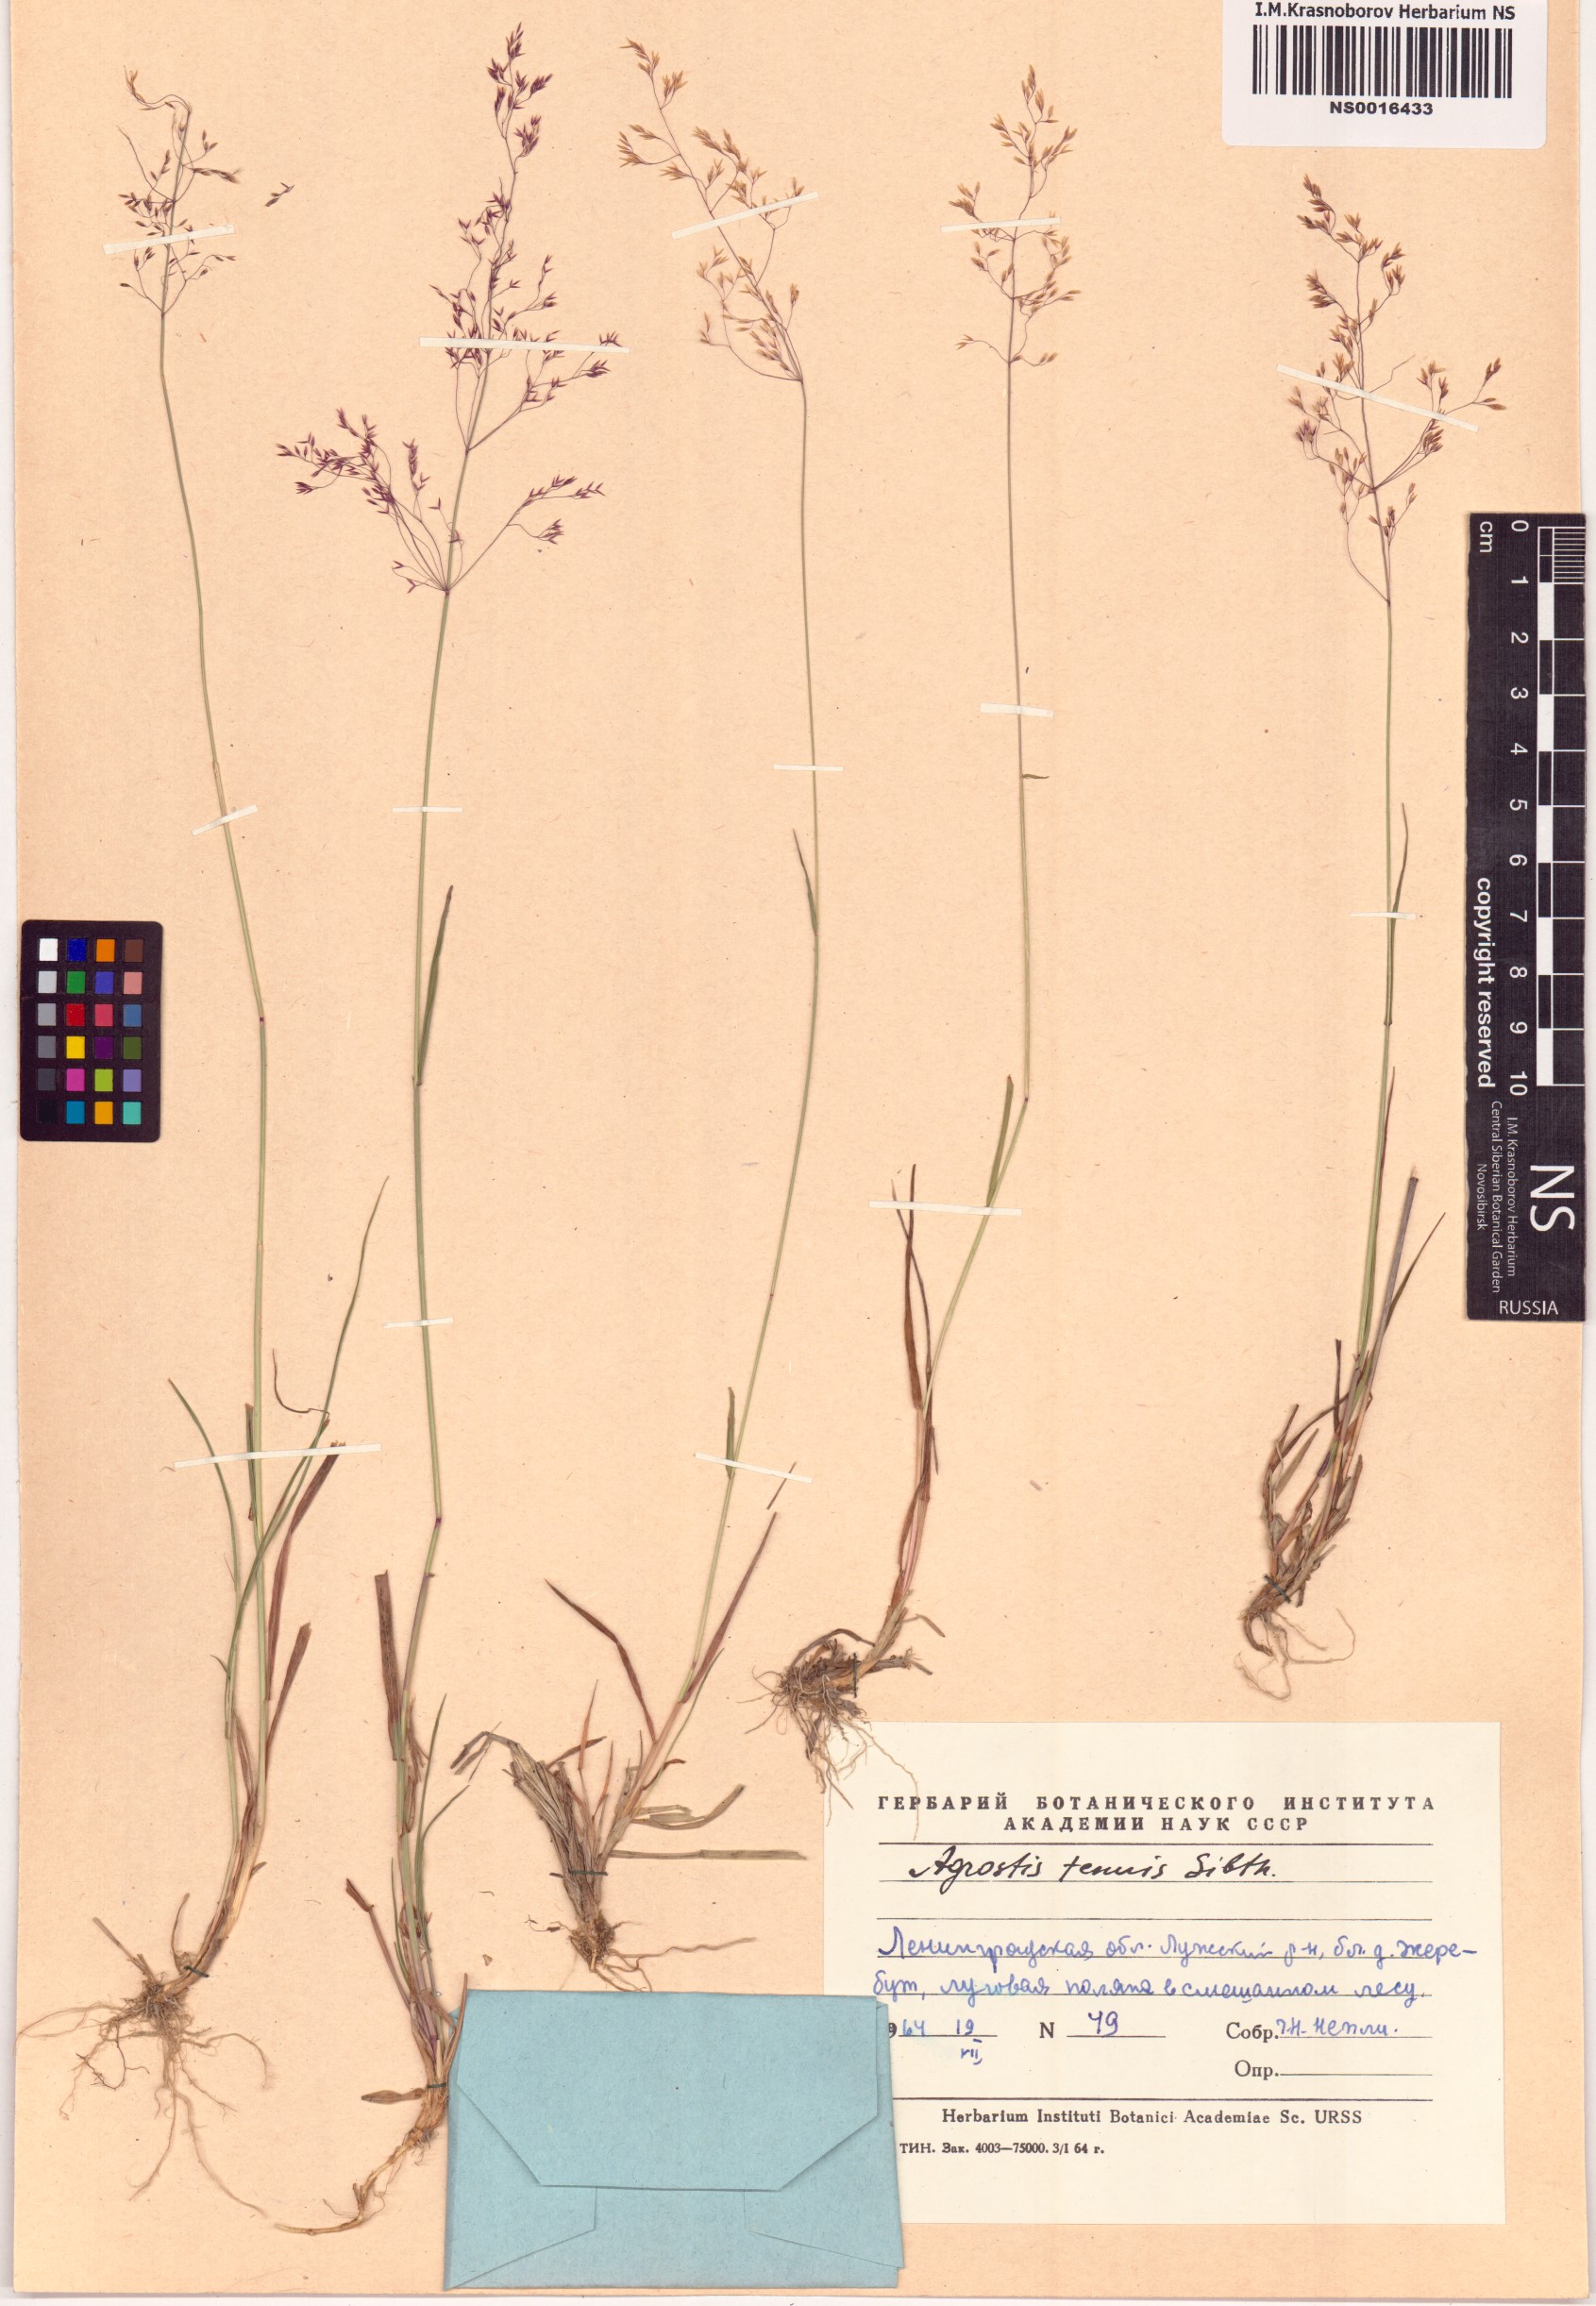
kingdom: Plantae
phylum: Tracheophyta
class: Liliopsida
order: Poales
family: Poaceae
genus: Agrostis
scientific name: Agrostis capillaris
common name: Colonial bentgrass
